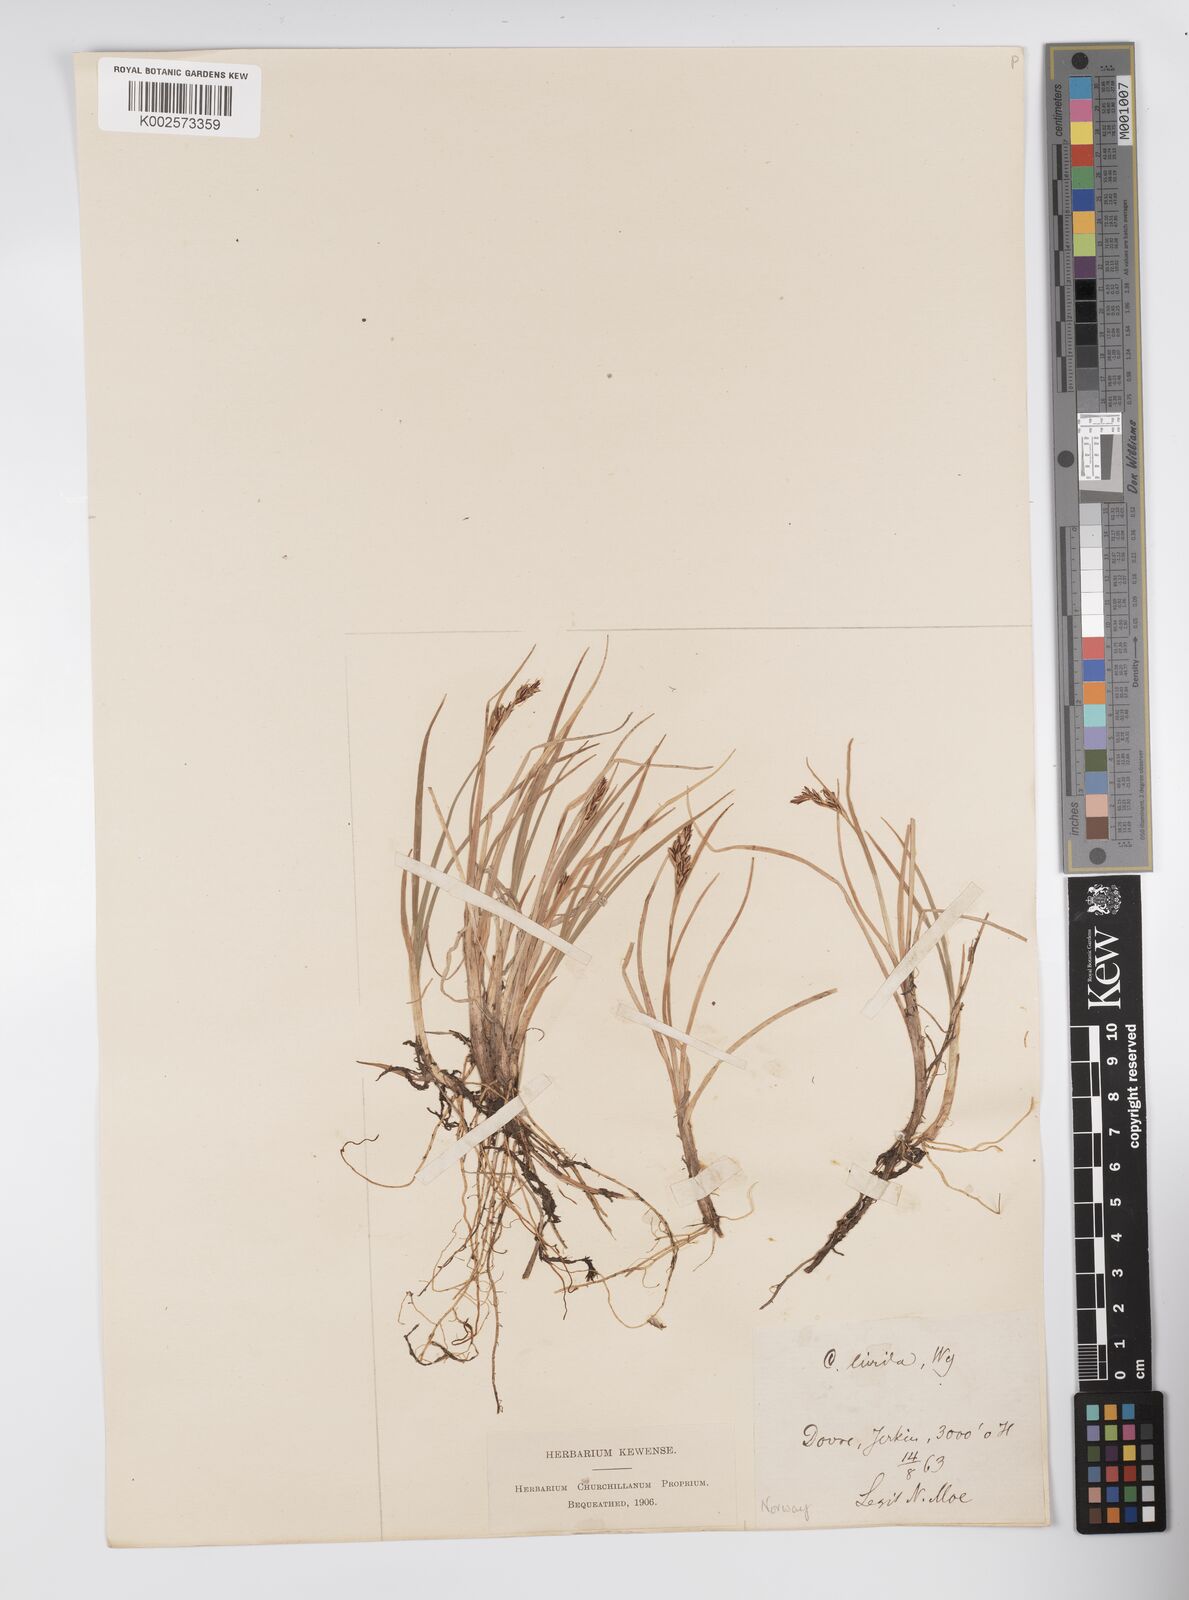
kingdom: Plantae
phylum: Tracheophyta
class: Liliopsida
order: Poales
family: Cyperaceae
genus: Carex
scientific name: Carex livida
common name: Livid sedge
